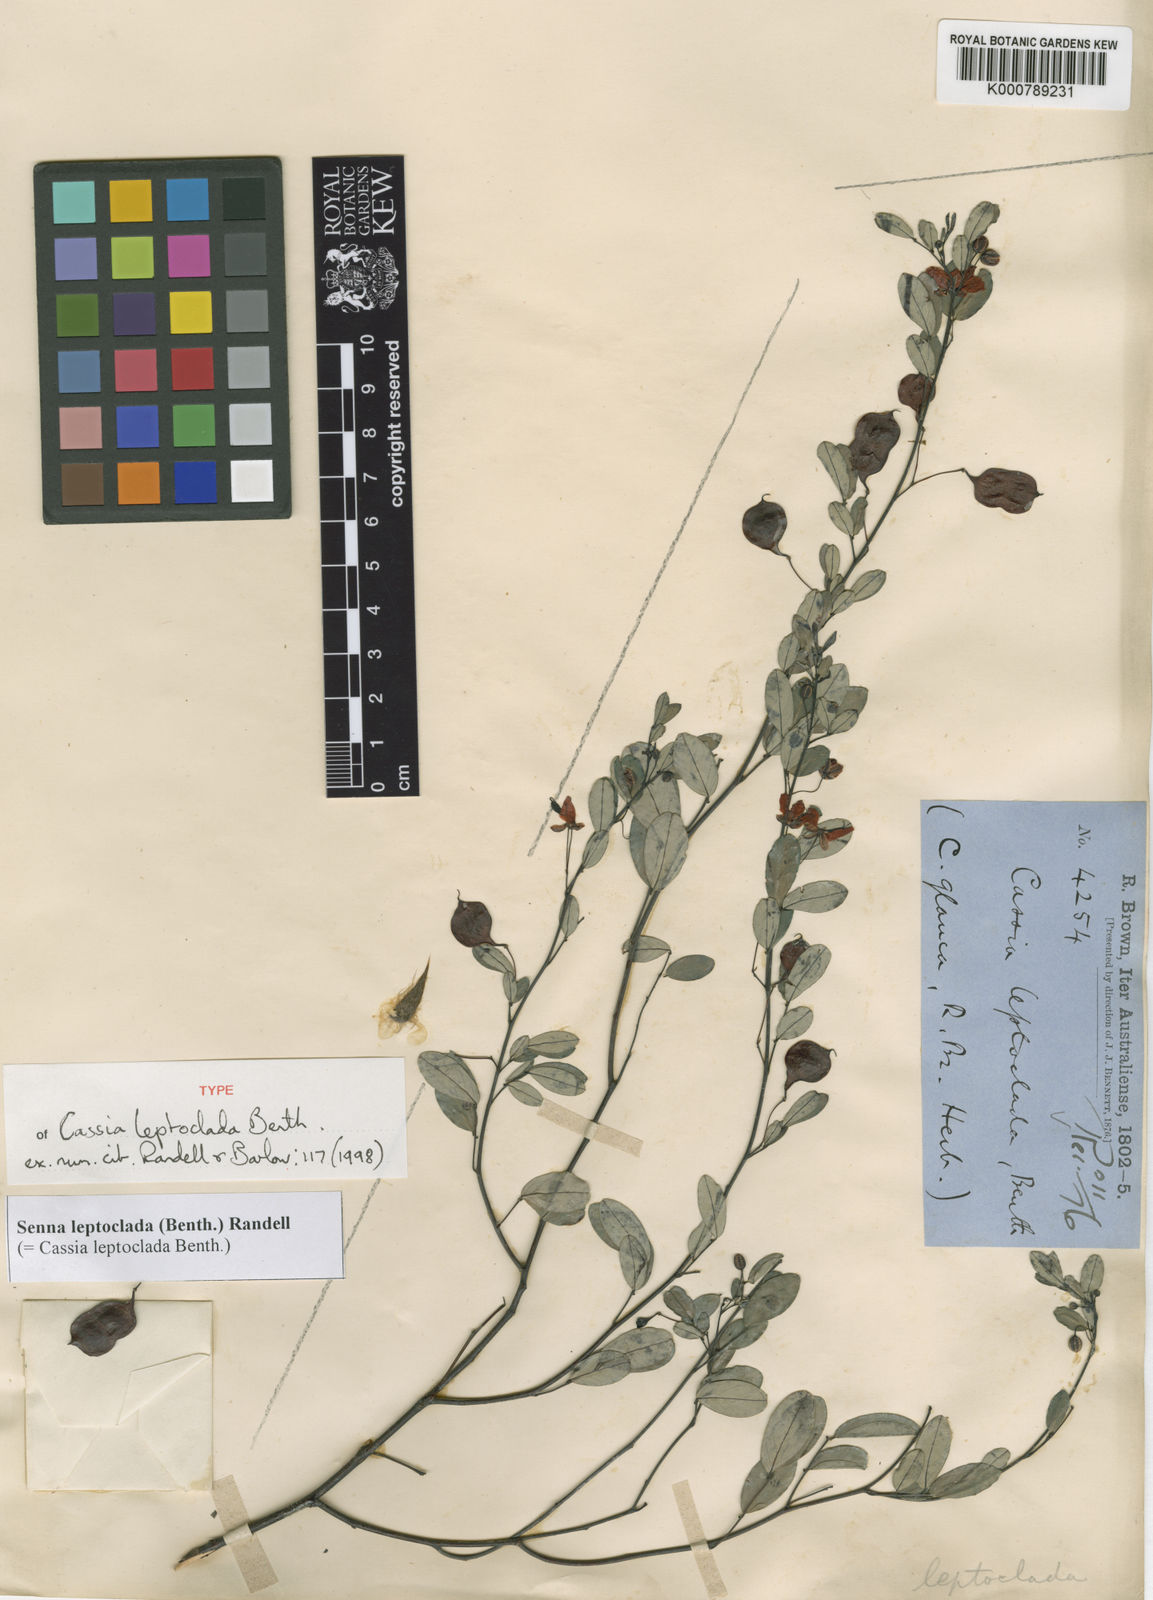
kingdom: Plantae
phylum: Tracheophyta
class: Magnoliopsida
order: Fabales
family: Fabaceae
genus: Senna
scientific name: Senna leptoclada
